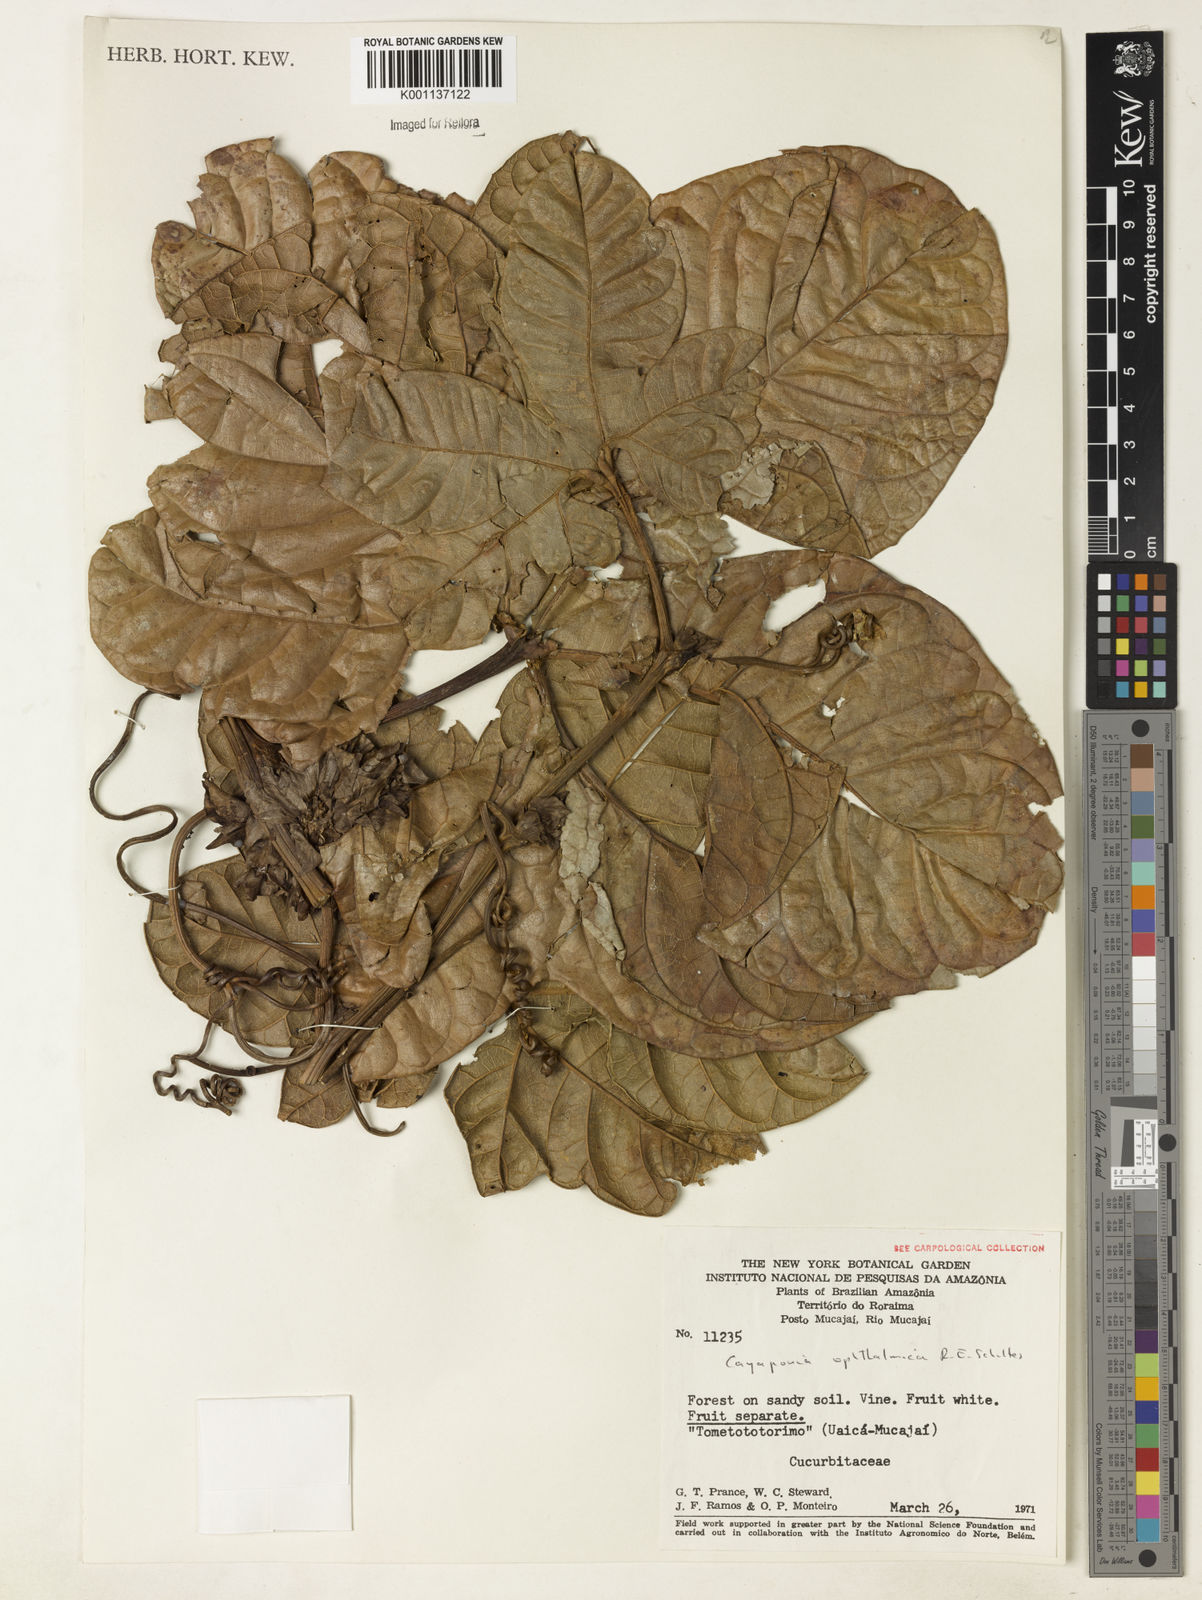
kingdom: Plantae
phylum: Tracheophyta
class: Magnoliopsida
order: Cucurbitales
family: Cucurbitaceae
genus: Cayaponia
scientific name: Cayaponia ophthalmica
